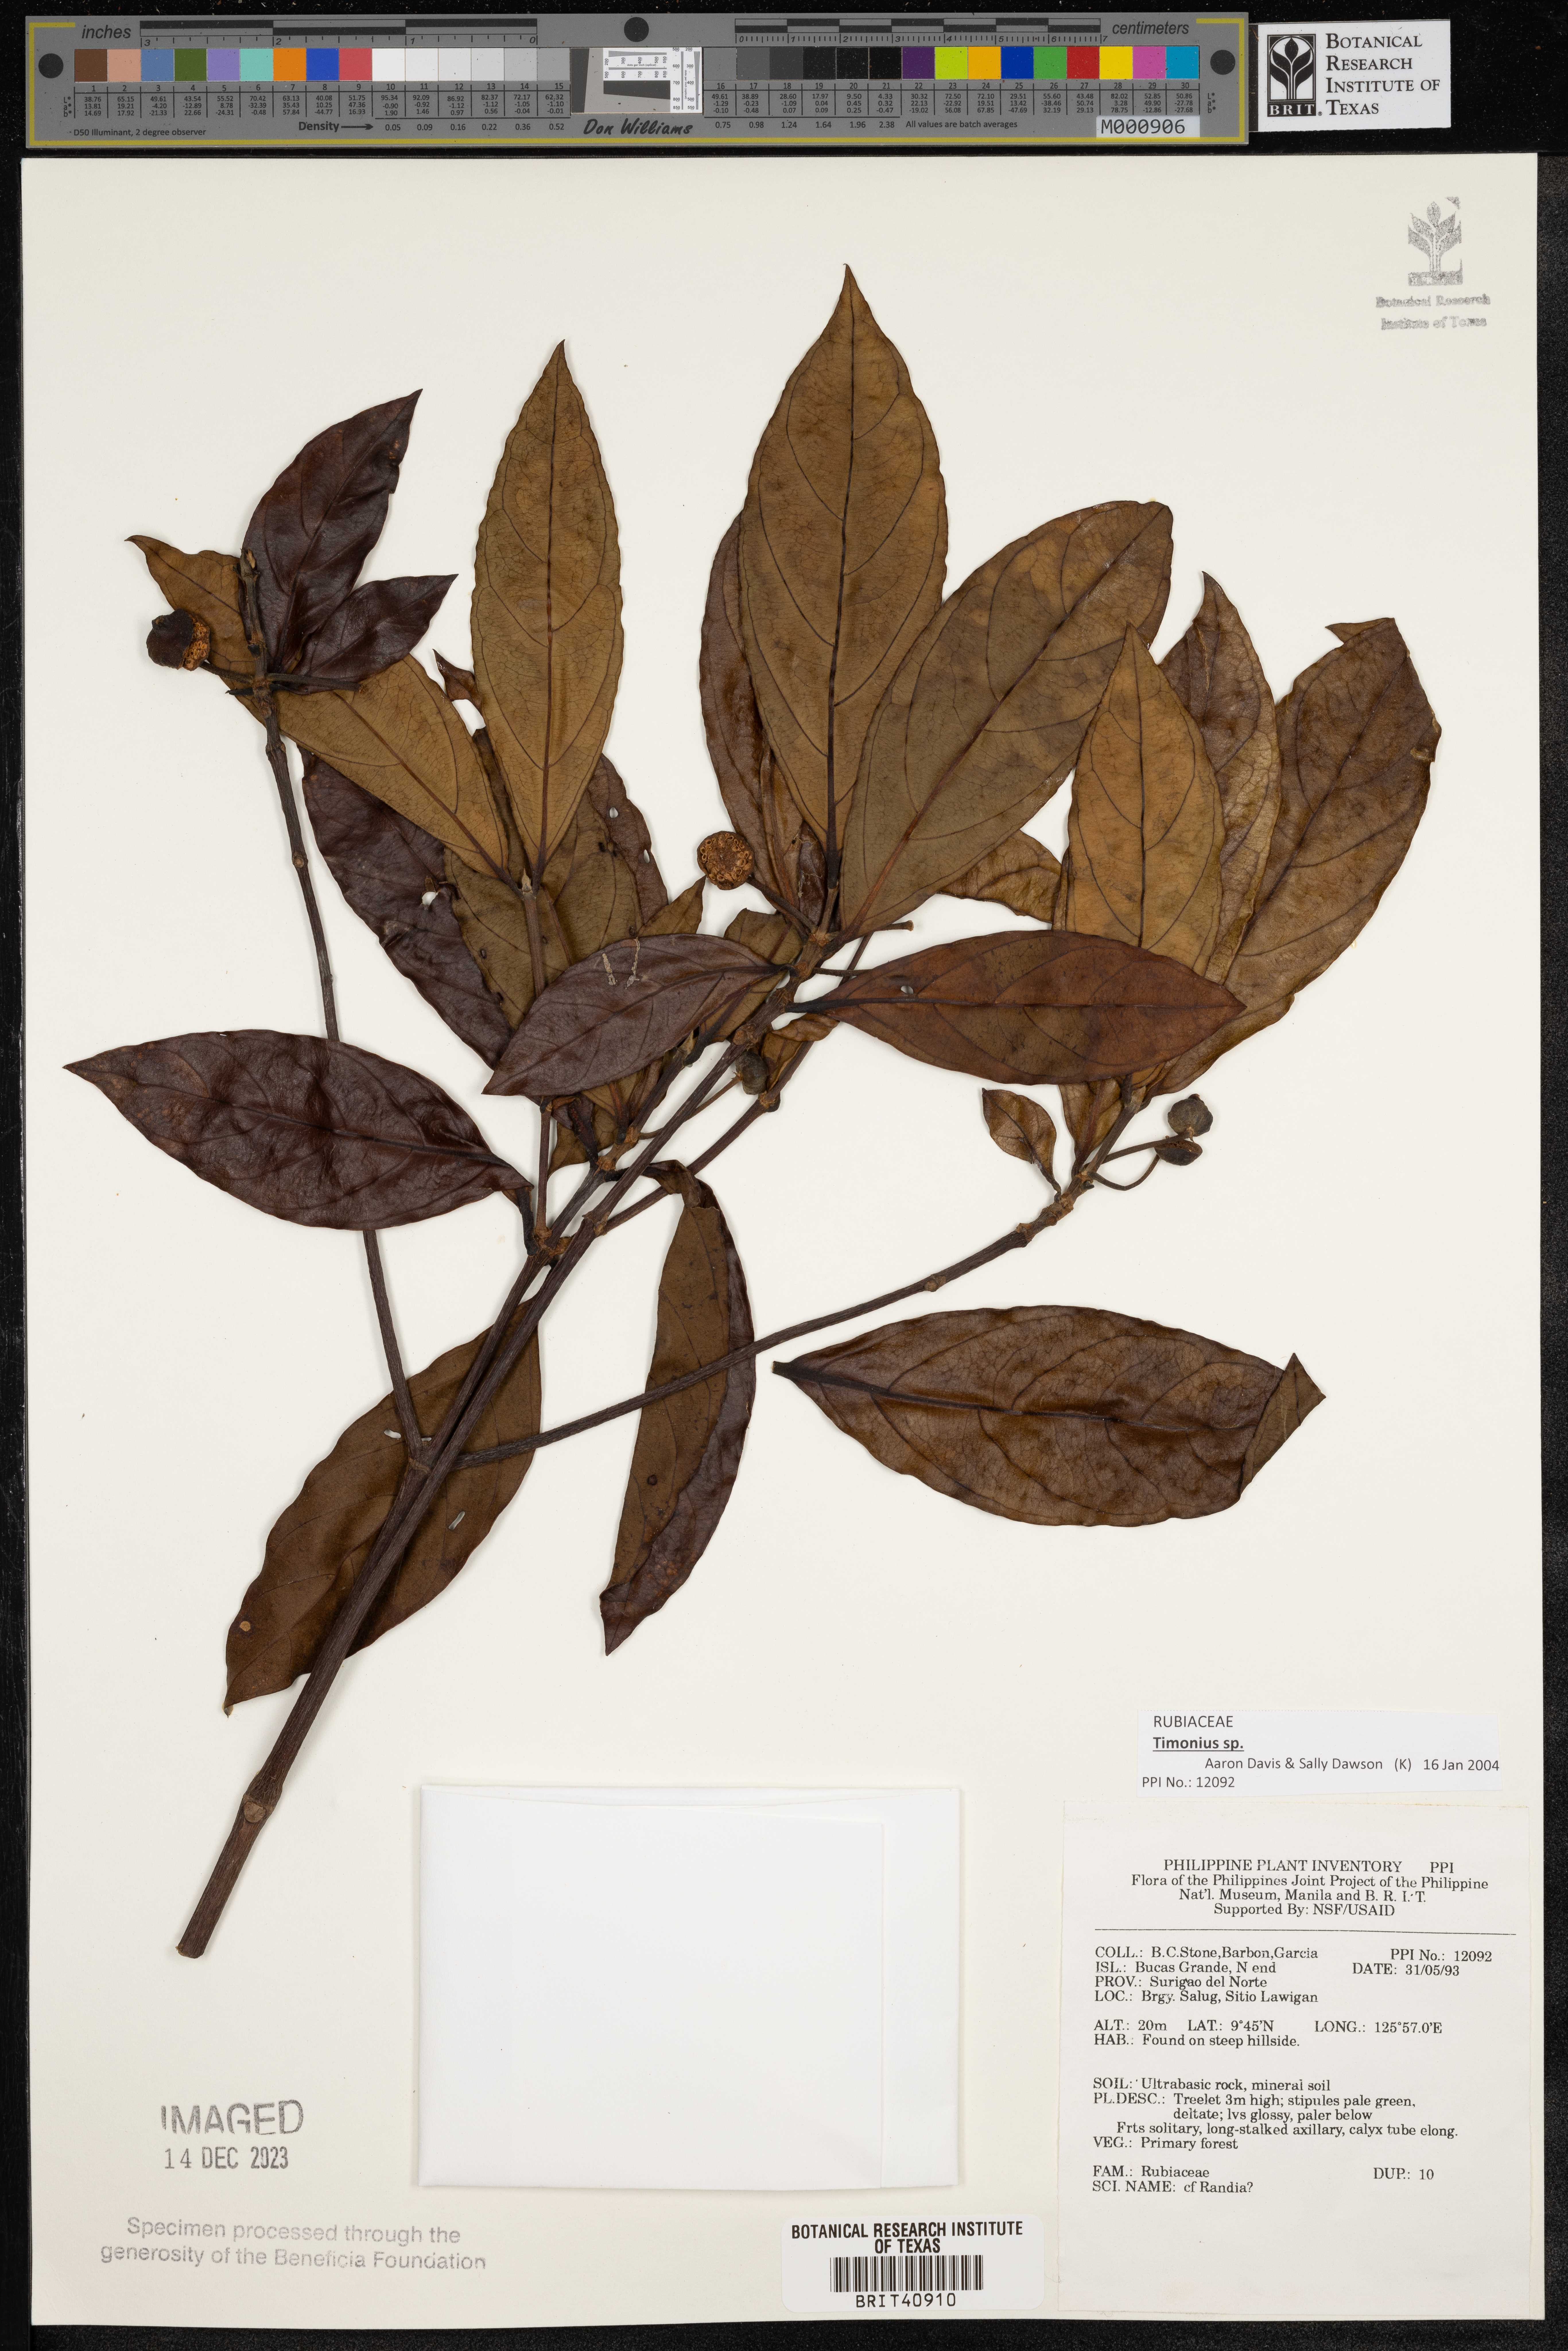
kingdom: Plantae
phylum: Tracheophyta
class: Magnoliopsida
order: Gentianales
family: Rubiaceae
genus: Randia
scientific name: Randia
